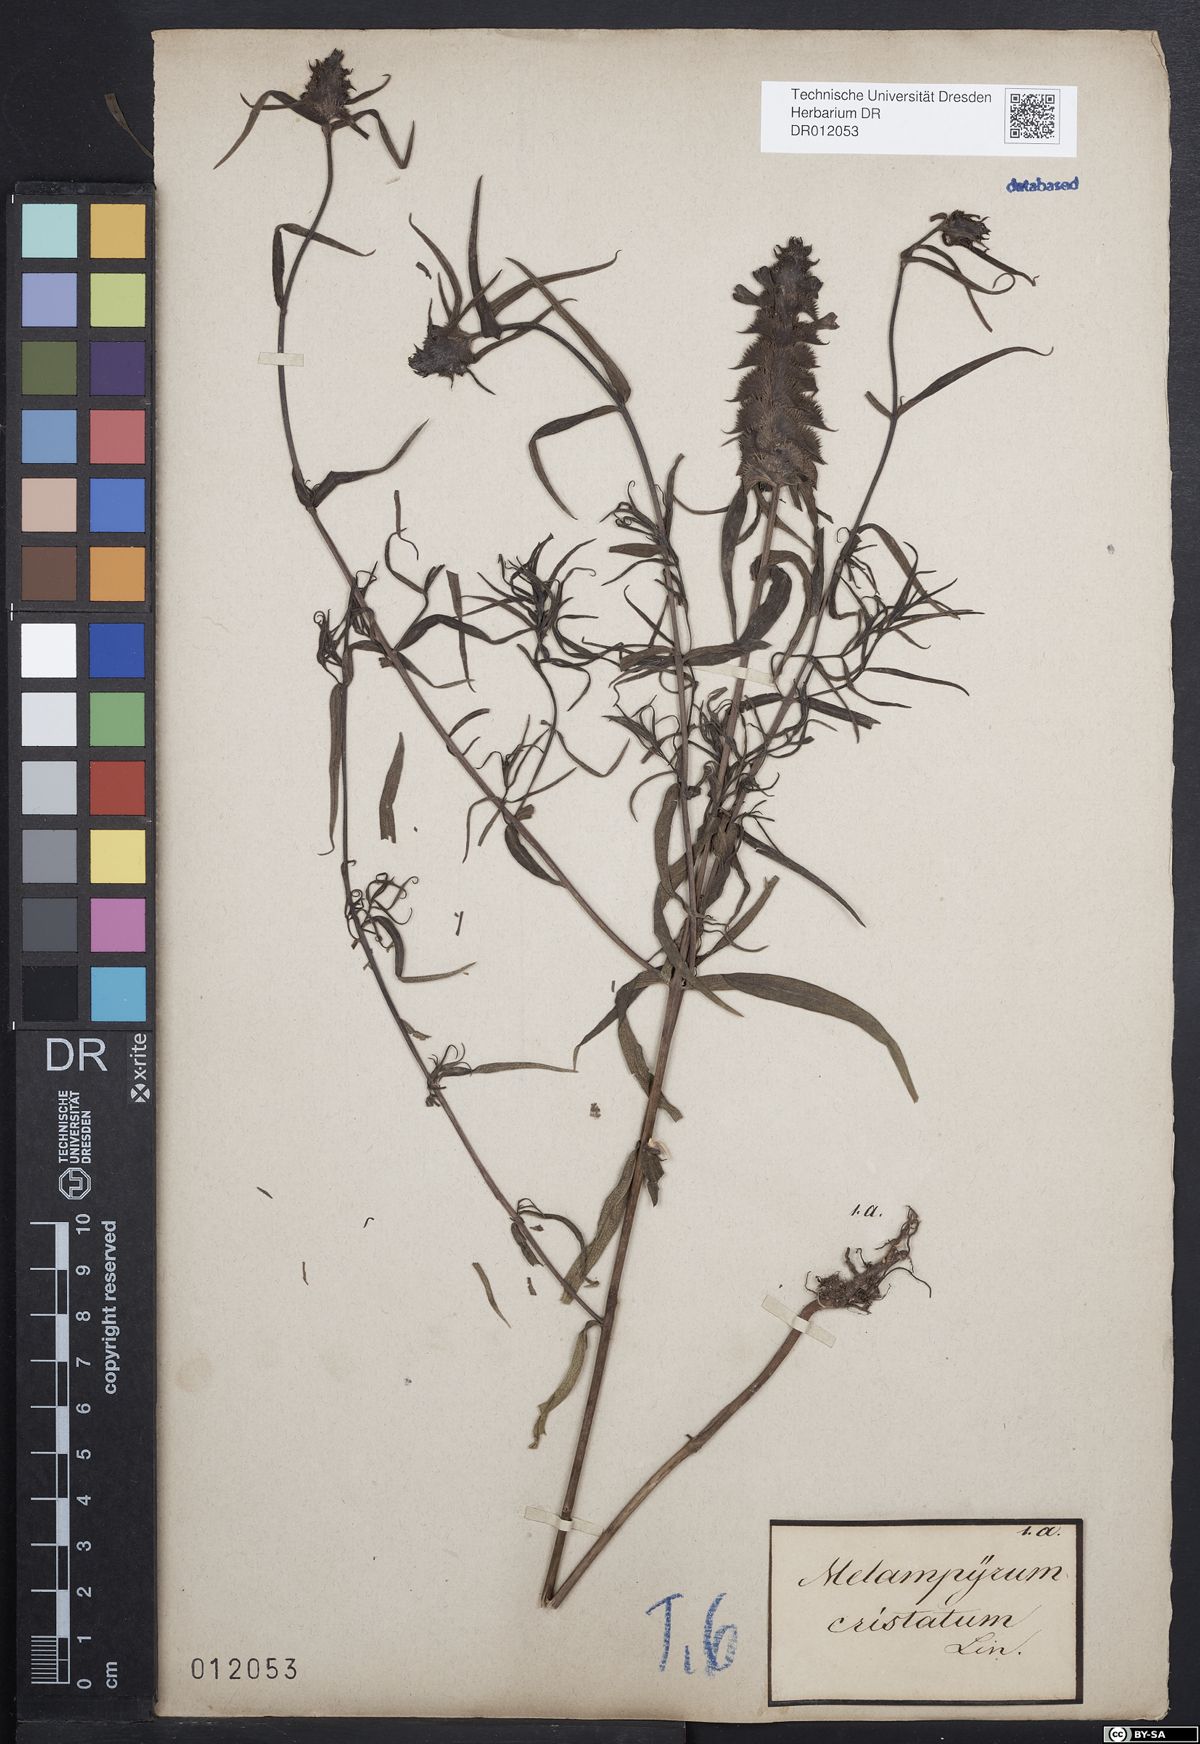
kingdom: Plantae
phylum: Tracheophyta
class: Magnoliopsida
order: Lamiales
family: Orobanchaceae
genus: Melampyrum
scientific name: Melampyrum cristatum
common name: Crested cow-wheat
